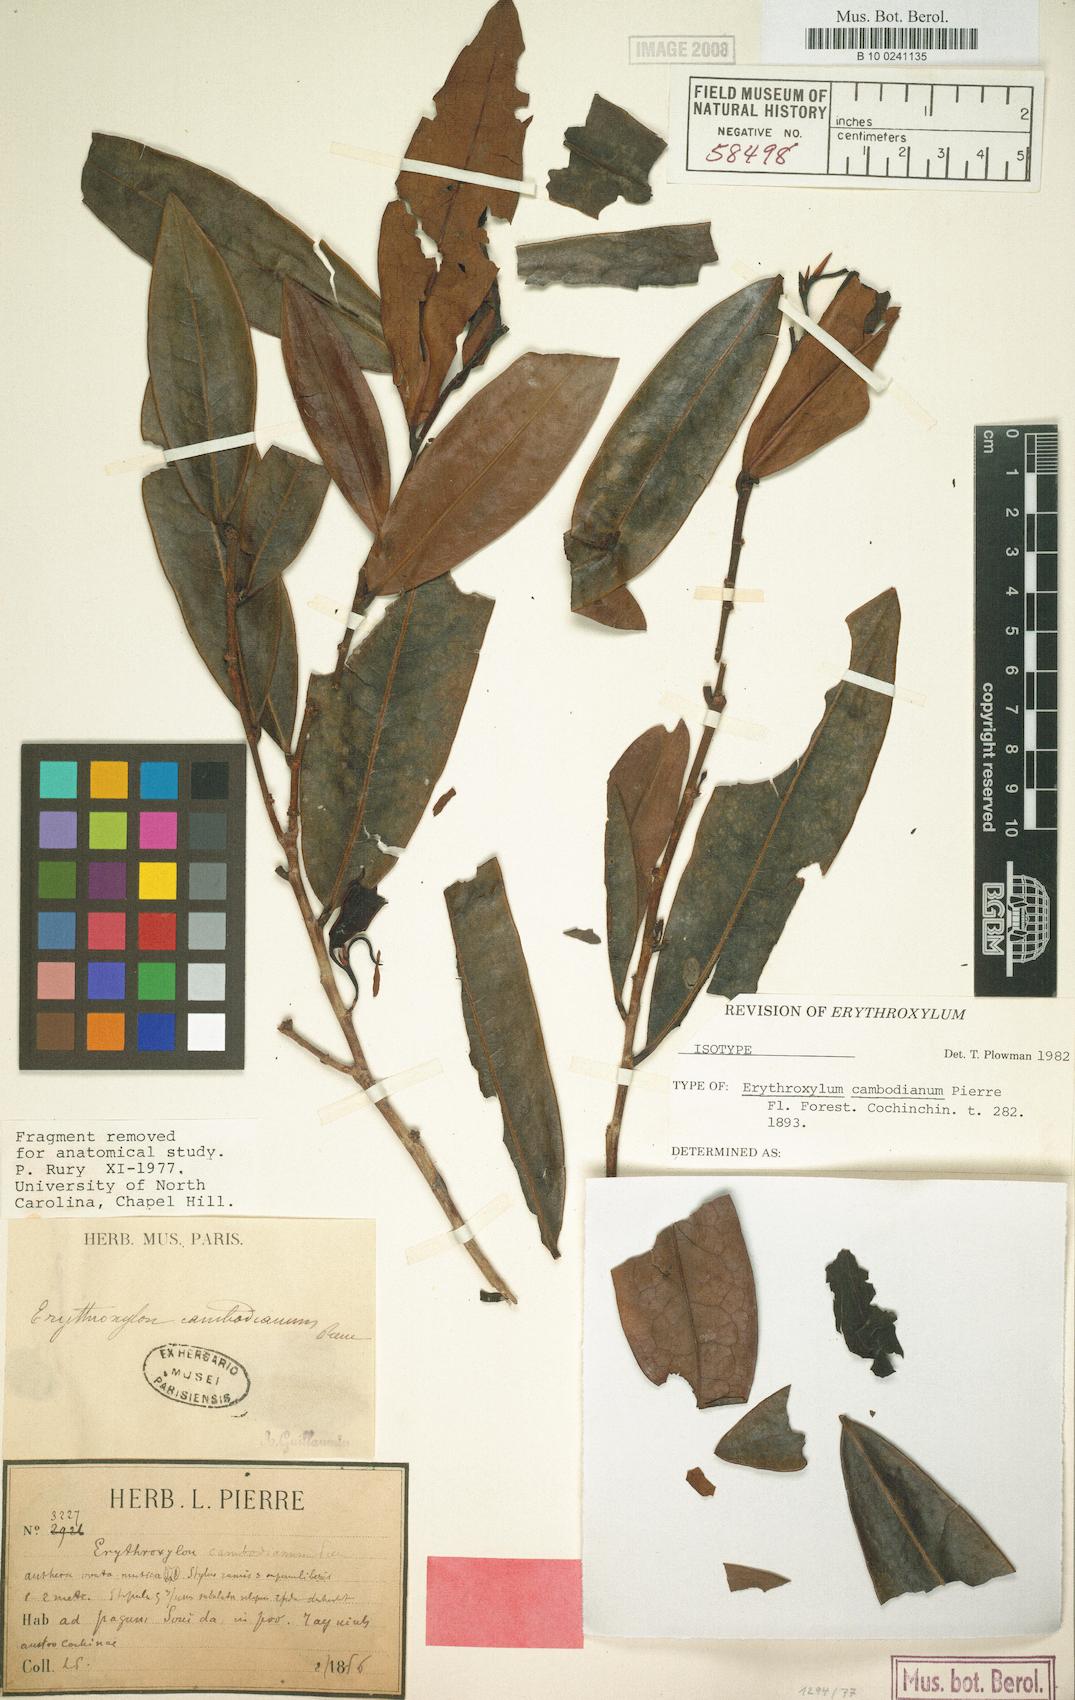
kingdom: Plantae
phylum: Tracheophyta
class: Magnoliopsida
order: Malpighiales
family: Erythroxylaceae
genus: Erythroxylum
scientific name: Erythroxylum cambodianum
